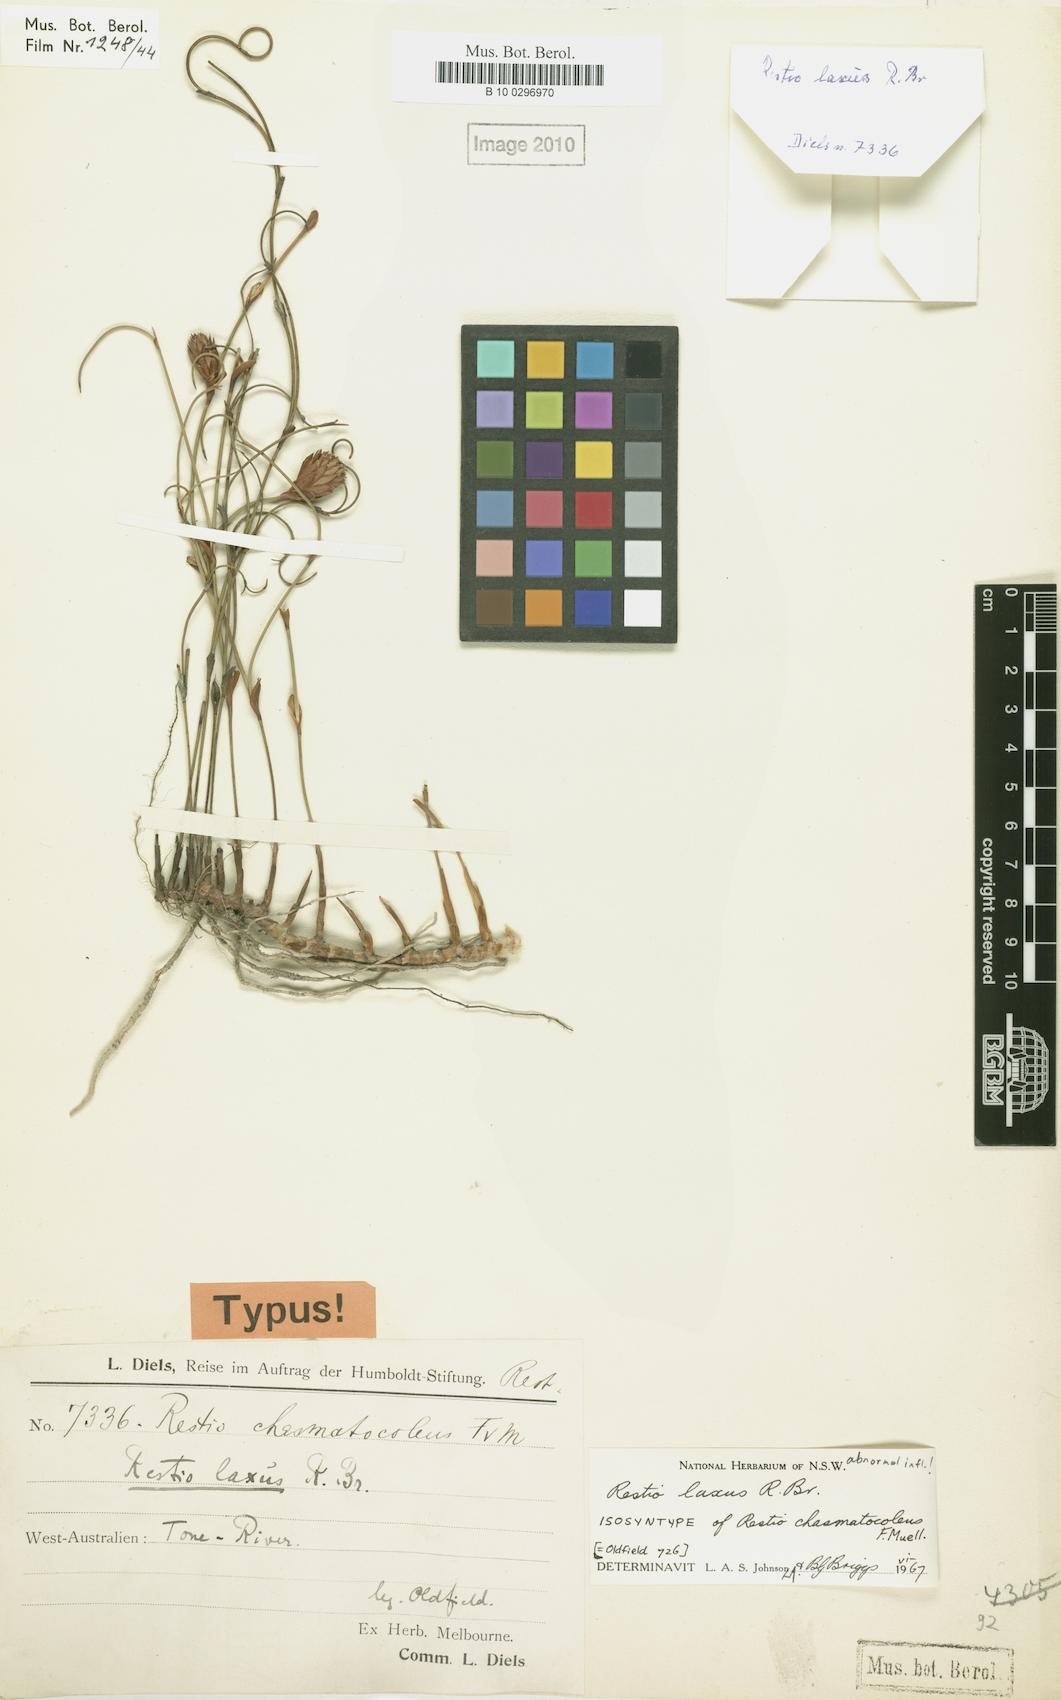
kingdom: Plantae
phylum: Tracheophyta
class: Liliopsida
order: Poales
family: Restionaceae
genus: Chordifex
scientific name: Chordifex laxus
